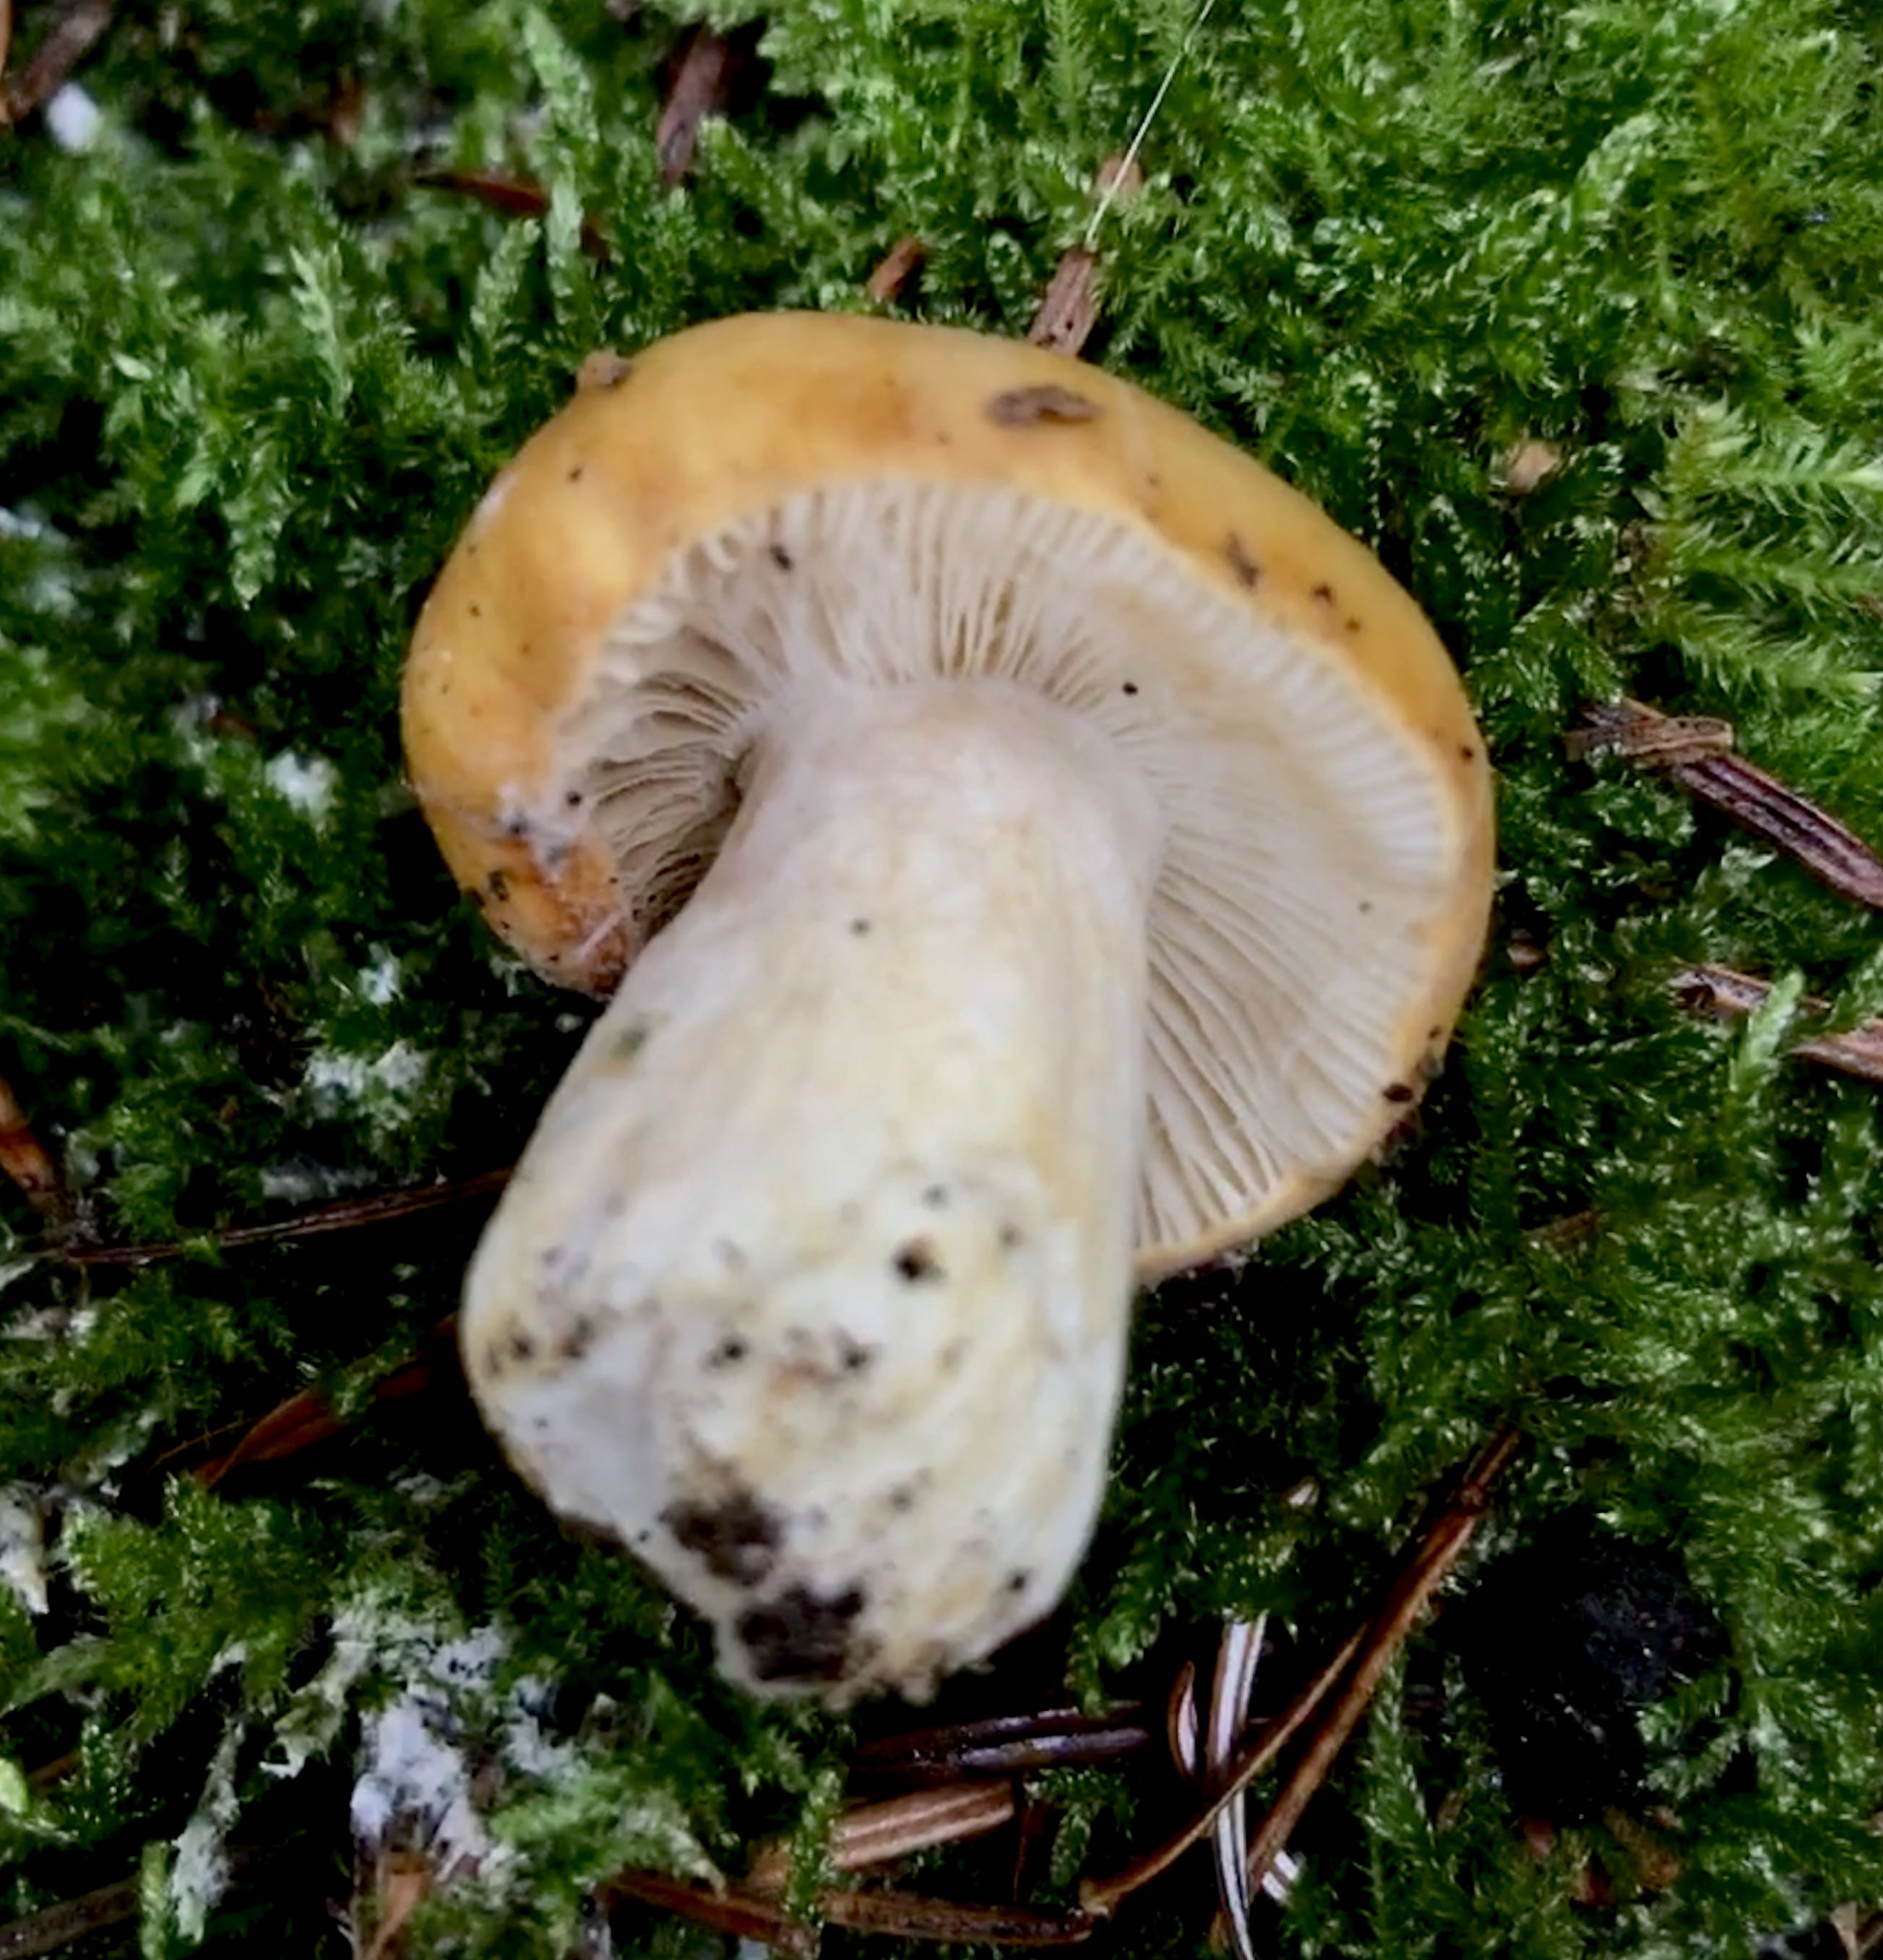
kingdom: Fungi
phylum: Basidiomycota
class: Agaricomycetes
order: Russulales
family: Russulaceae
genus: Russula
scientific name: Russula foetens
